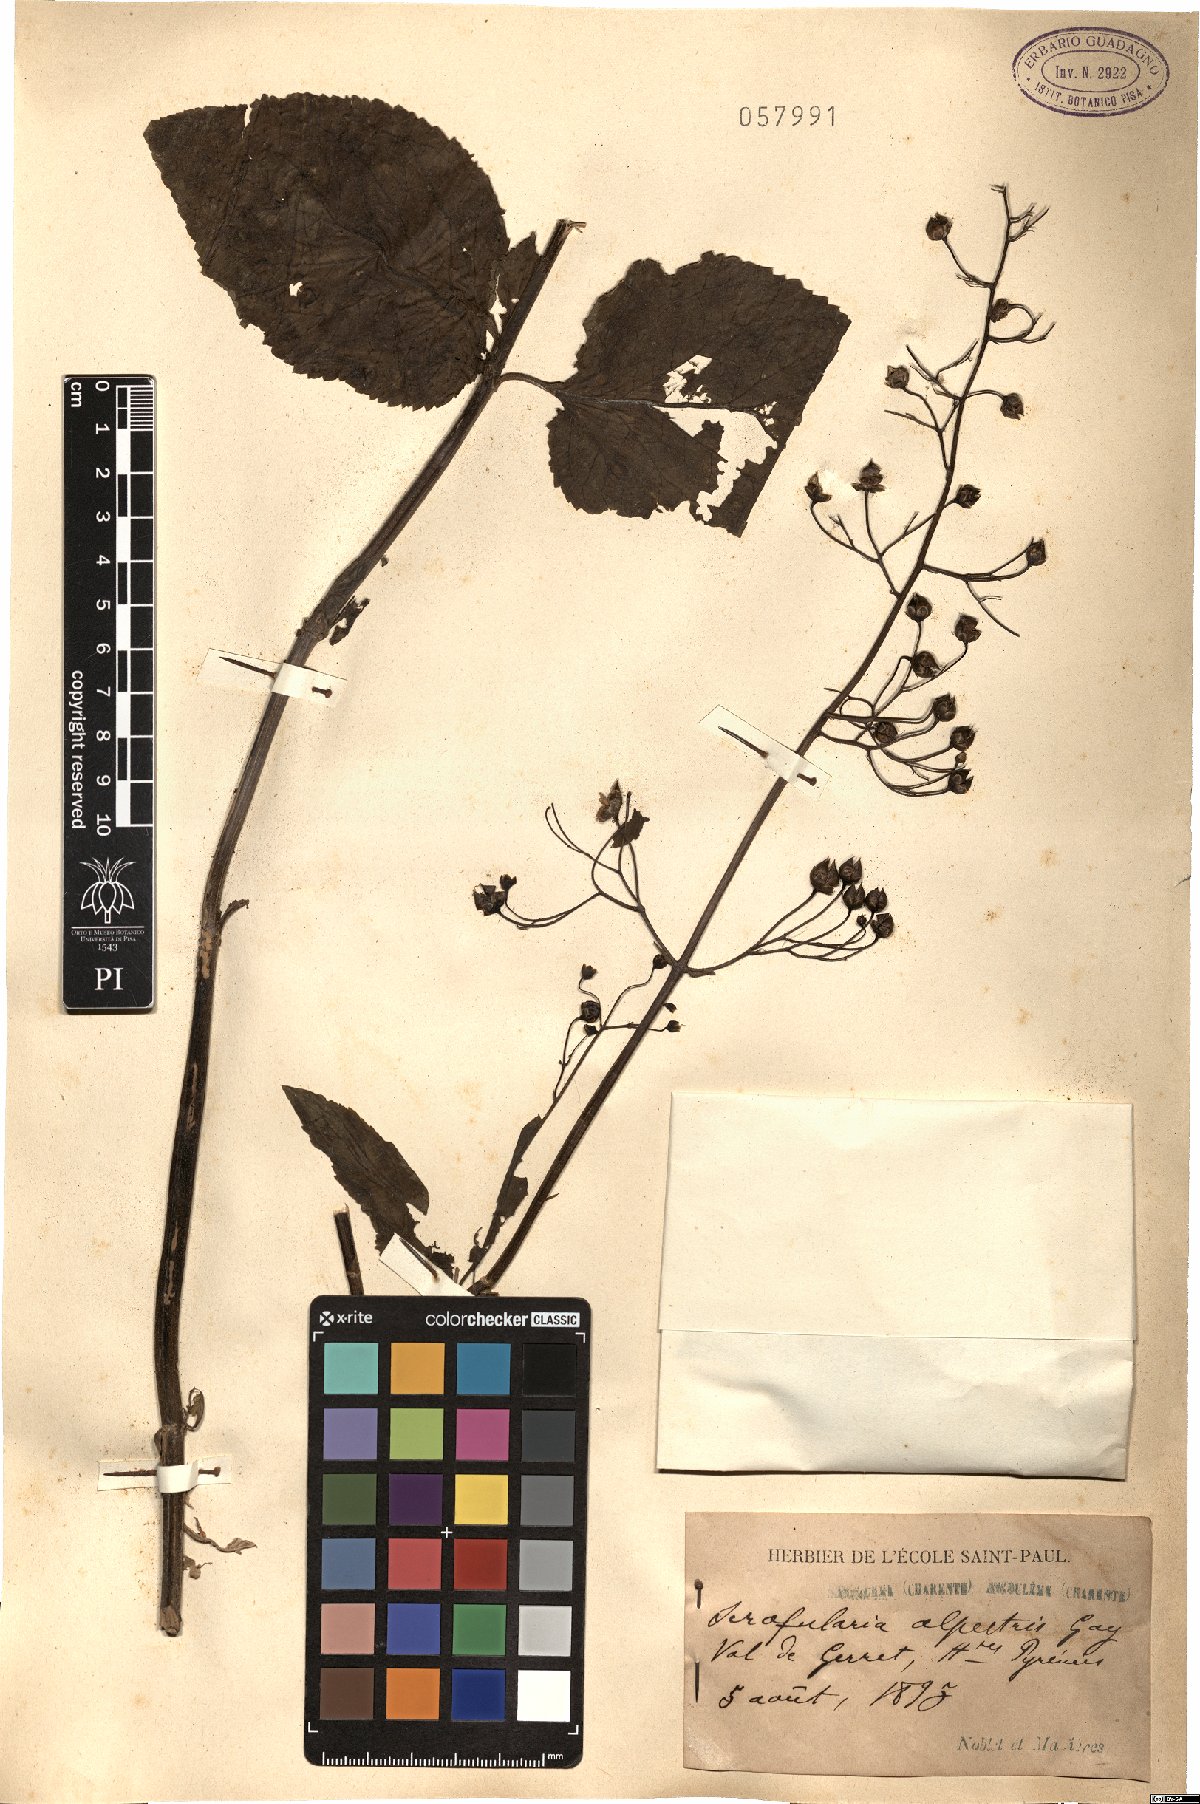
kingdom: Plantae
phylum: Tracheophyta
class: Magnoliopsida
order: Lamiales
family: Scrophulariaceae
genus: Scrophularia
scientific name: Scrophularia alpestris
